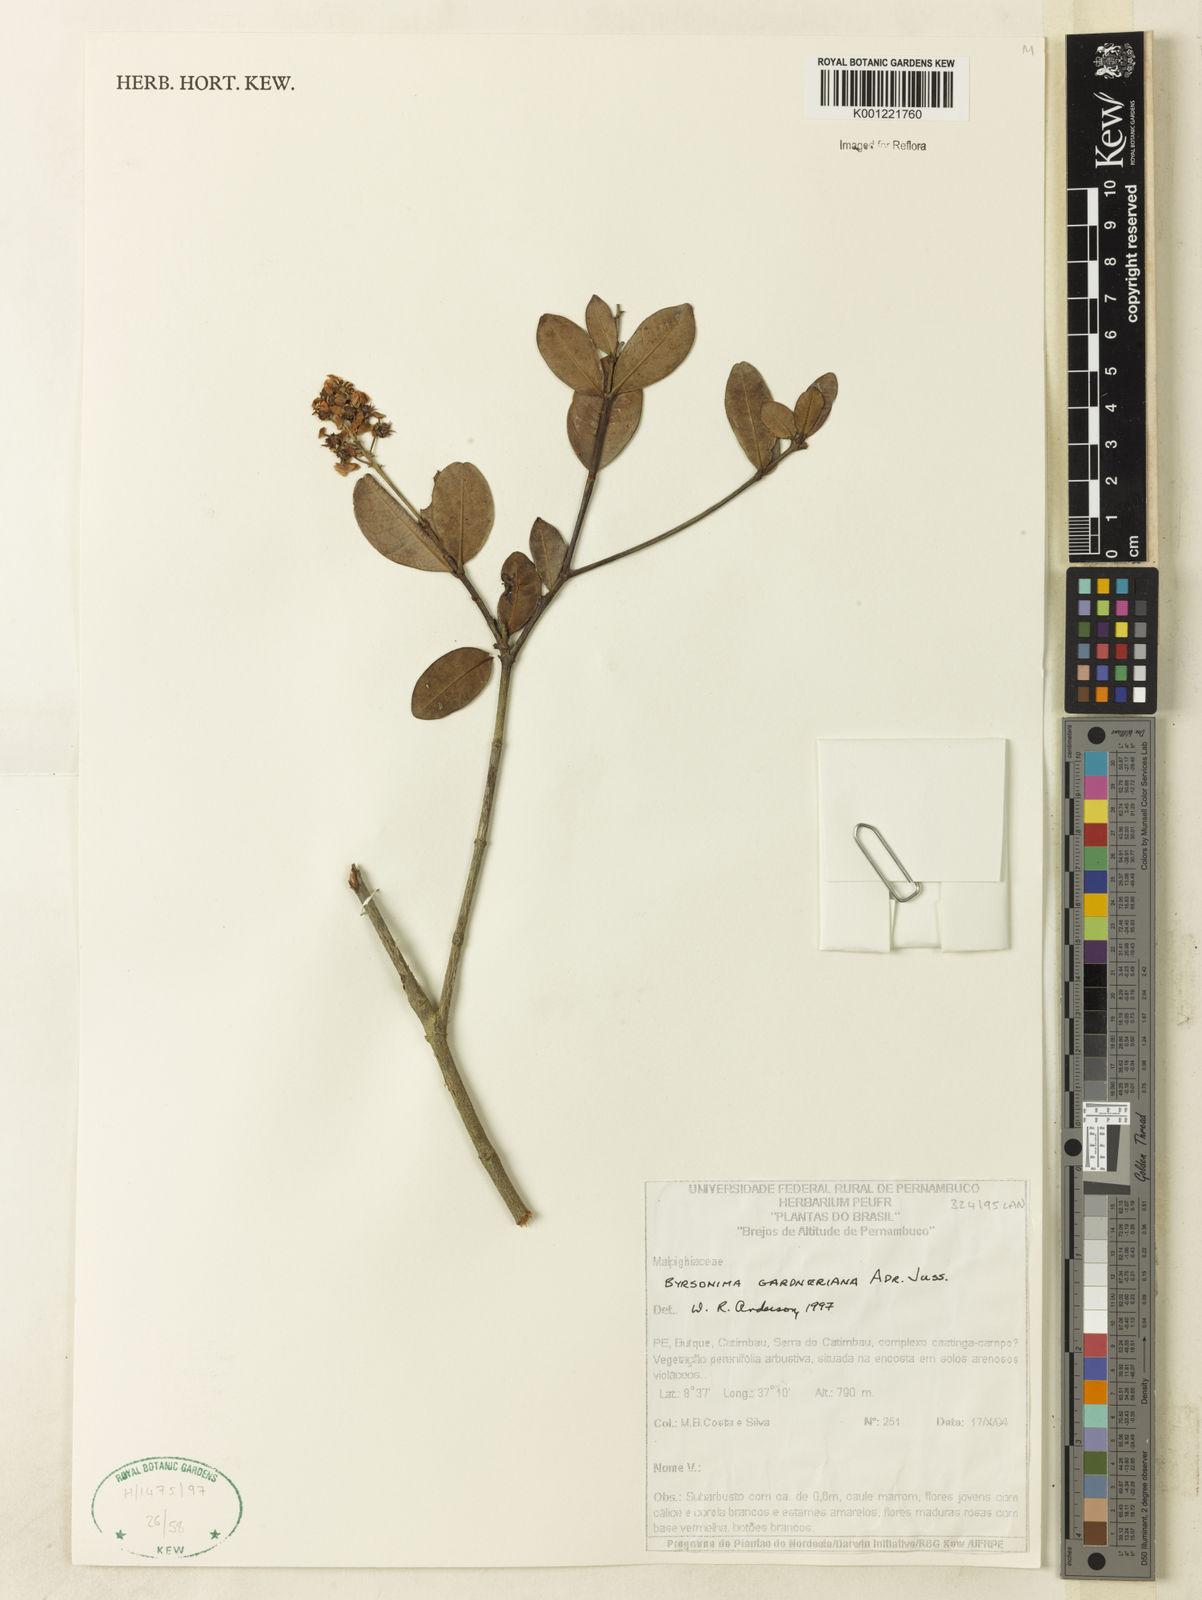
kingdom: Plantae
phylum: Tracheophyta
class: Magnoliopsida
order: Malpighiales
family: Malpighiaceae
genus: Byrsonima
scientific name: Byrsonima gardneriana
